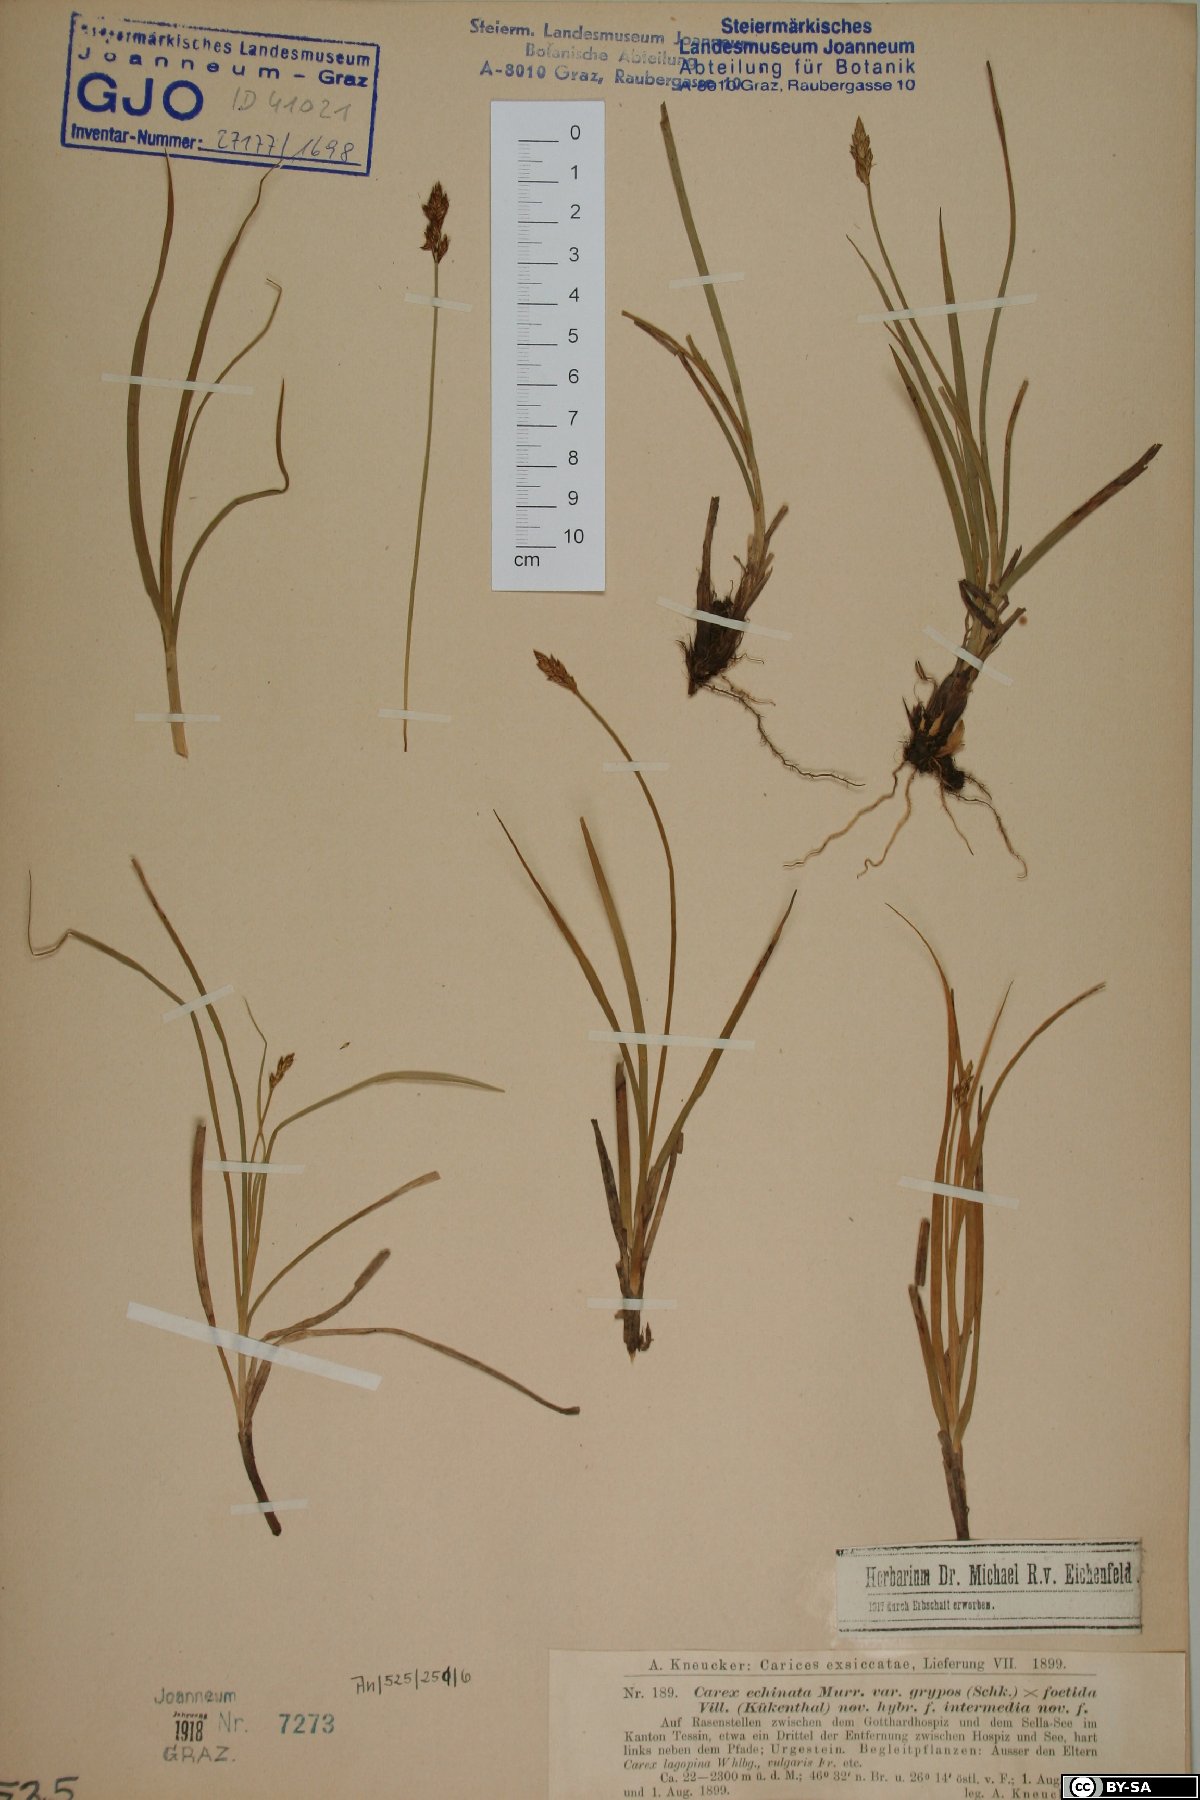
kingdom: Plantae
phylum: Tracheophyta
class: Liliopsida
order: Poales
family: Cyperaceae
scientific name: Cyperaceae
